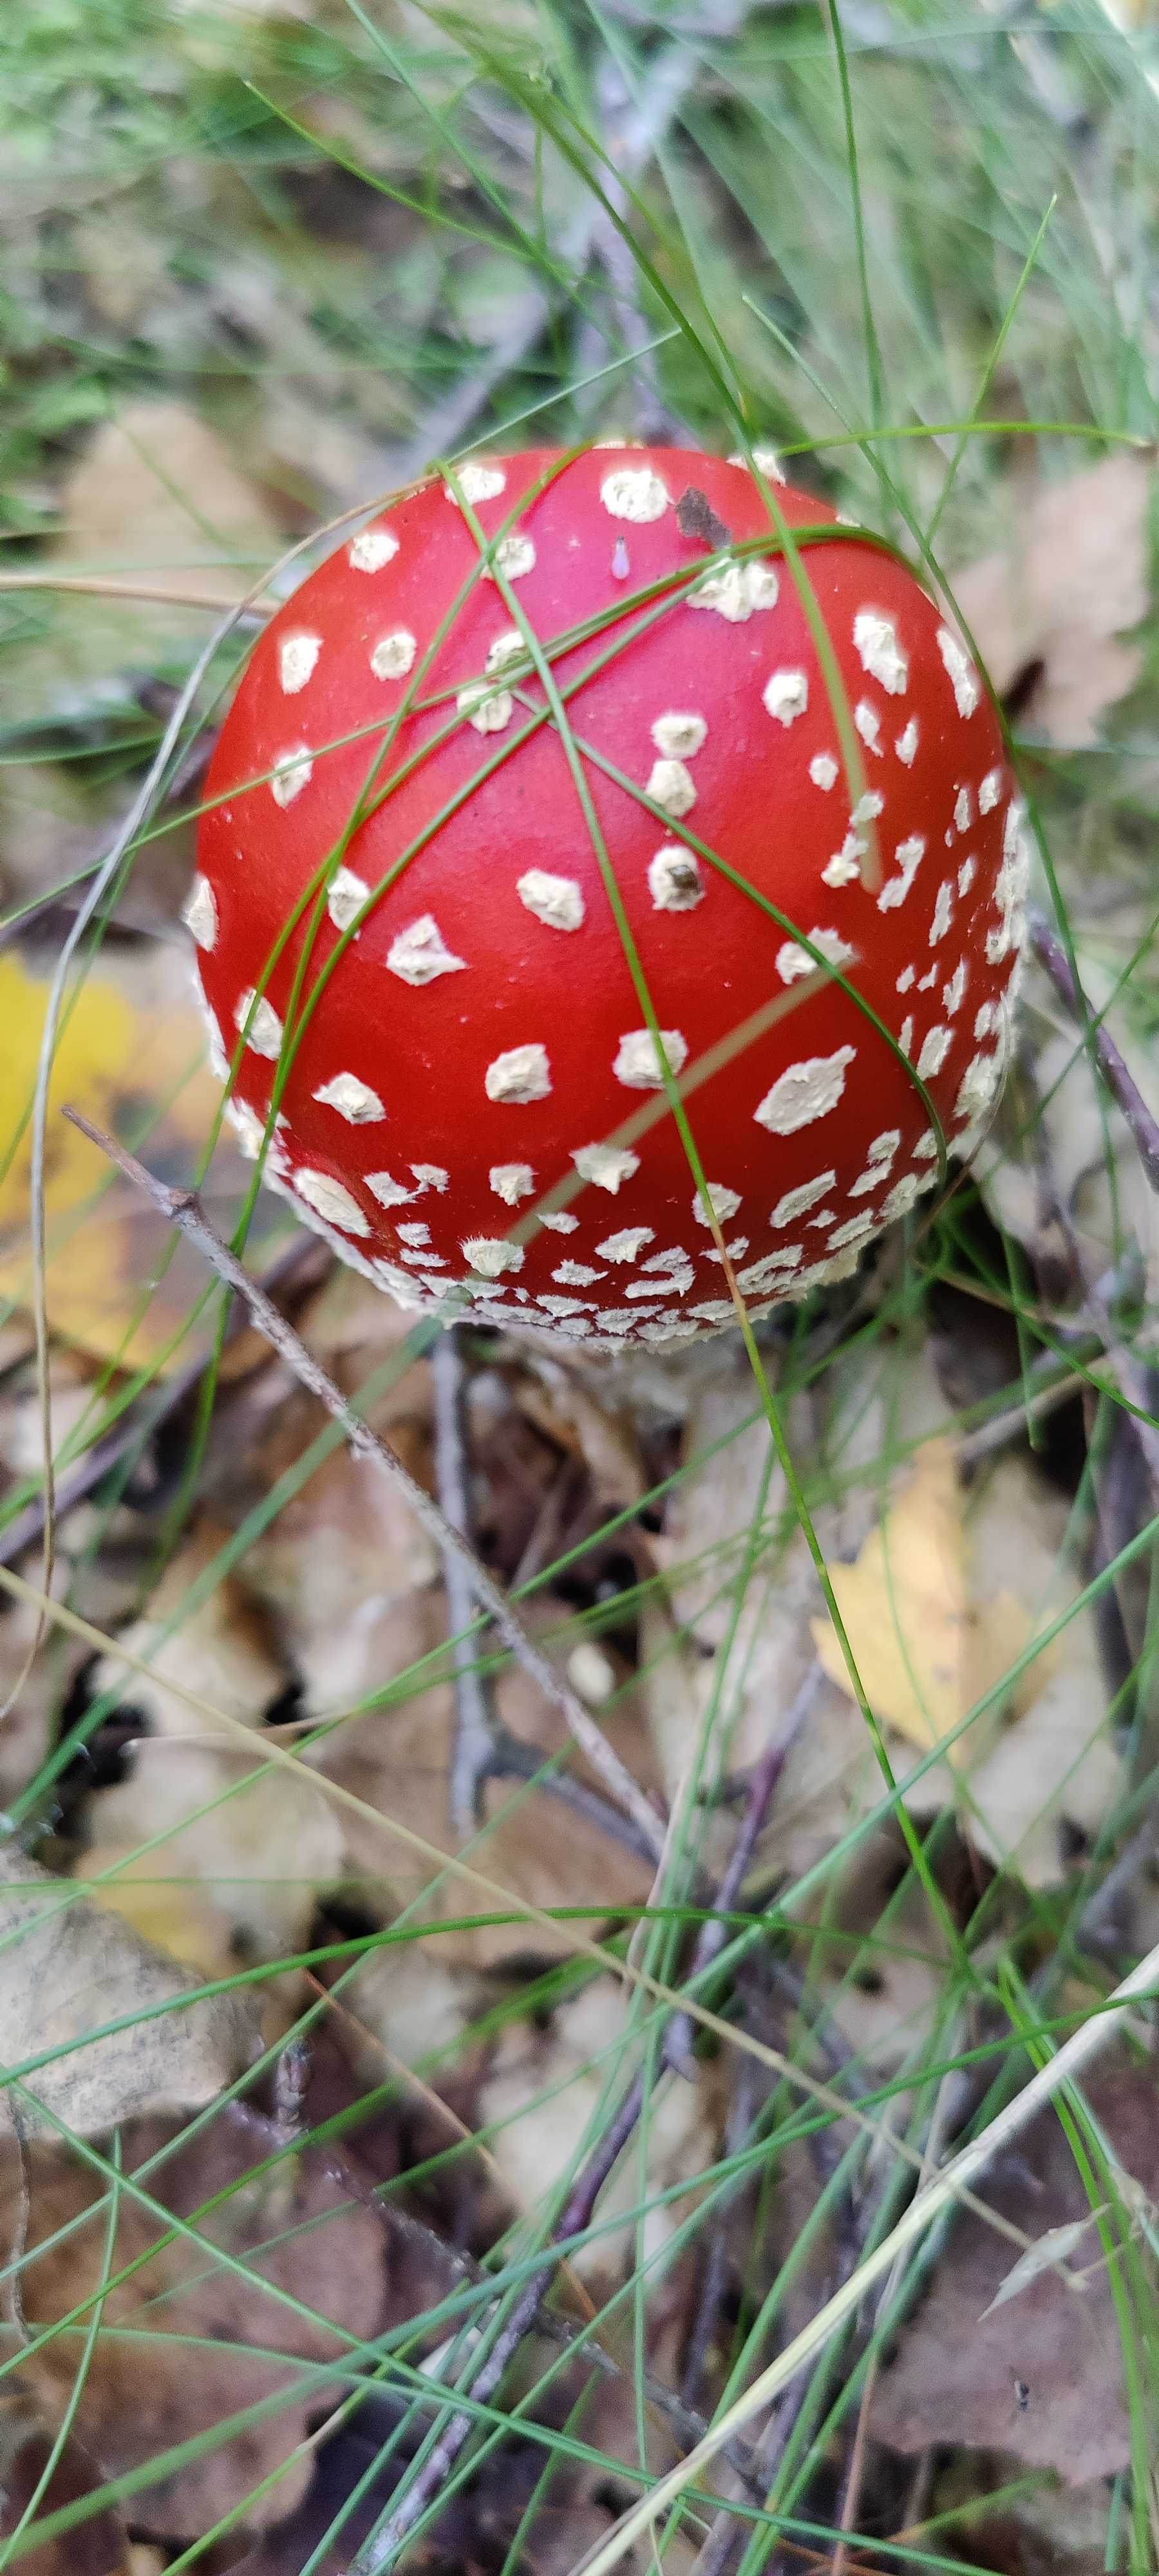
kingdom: Fungi
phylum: Basidiomycota
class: Agaricomycetes
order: Agaricales
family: Amanitaceae
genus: Amanita
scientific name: Amanita muscaria
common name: rød fluesvamp
